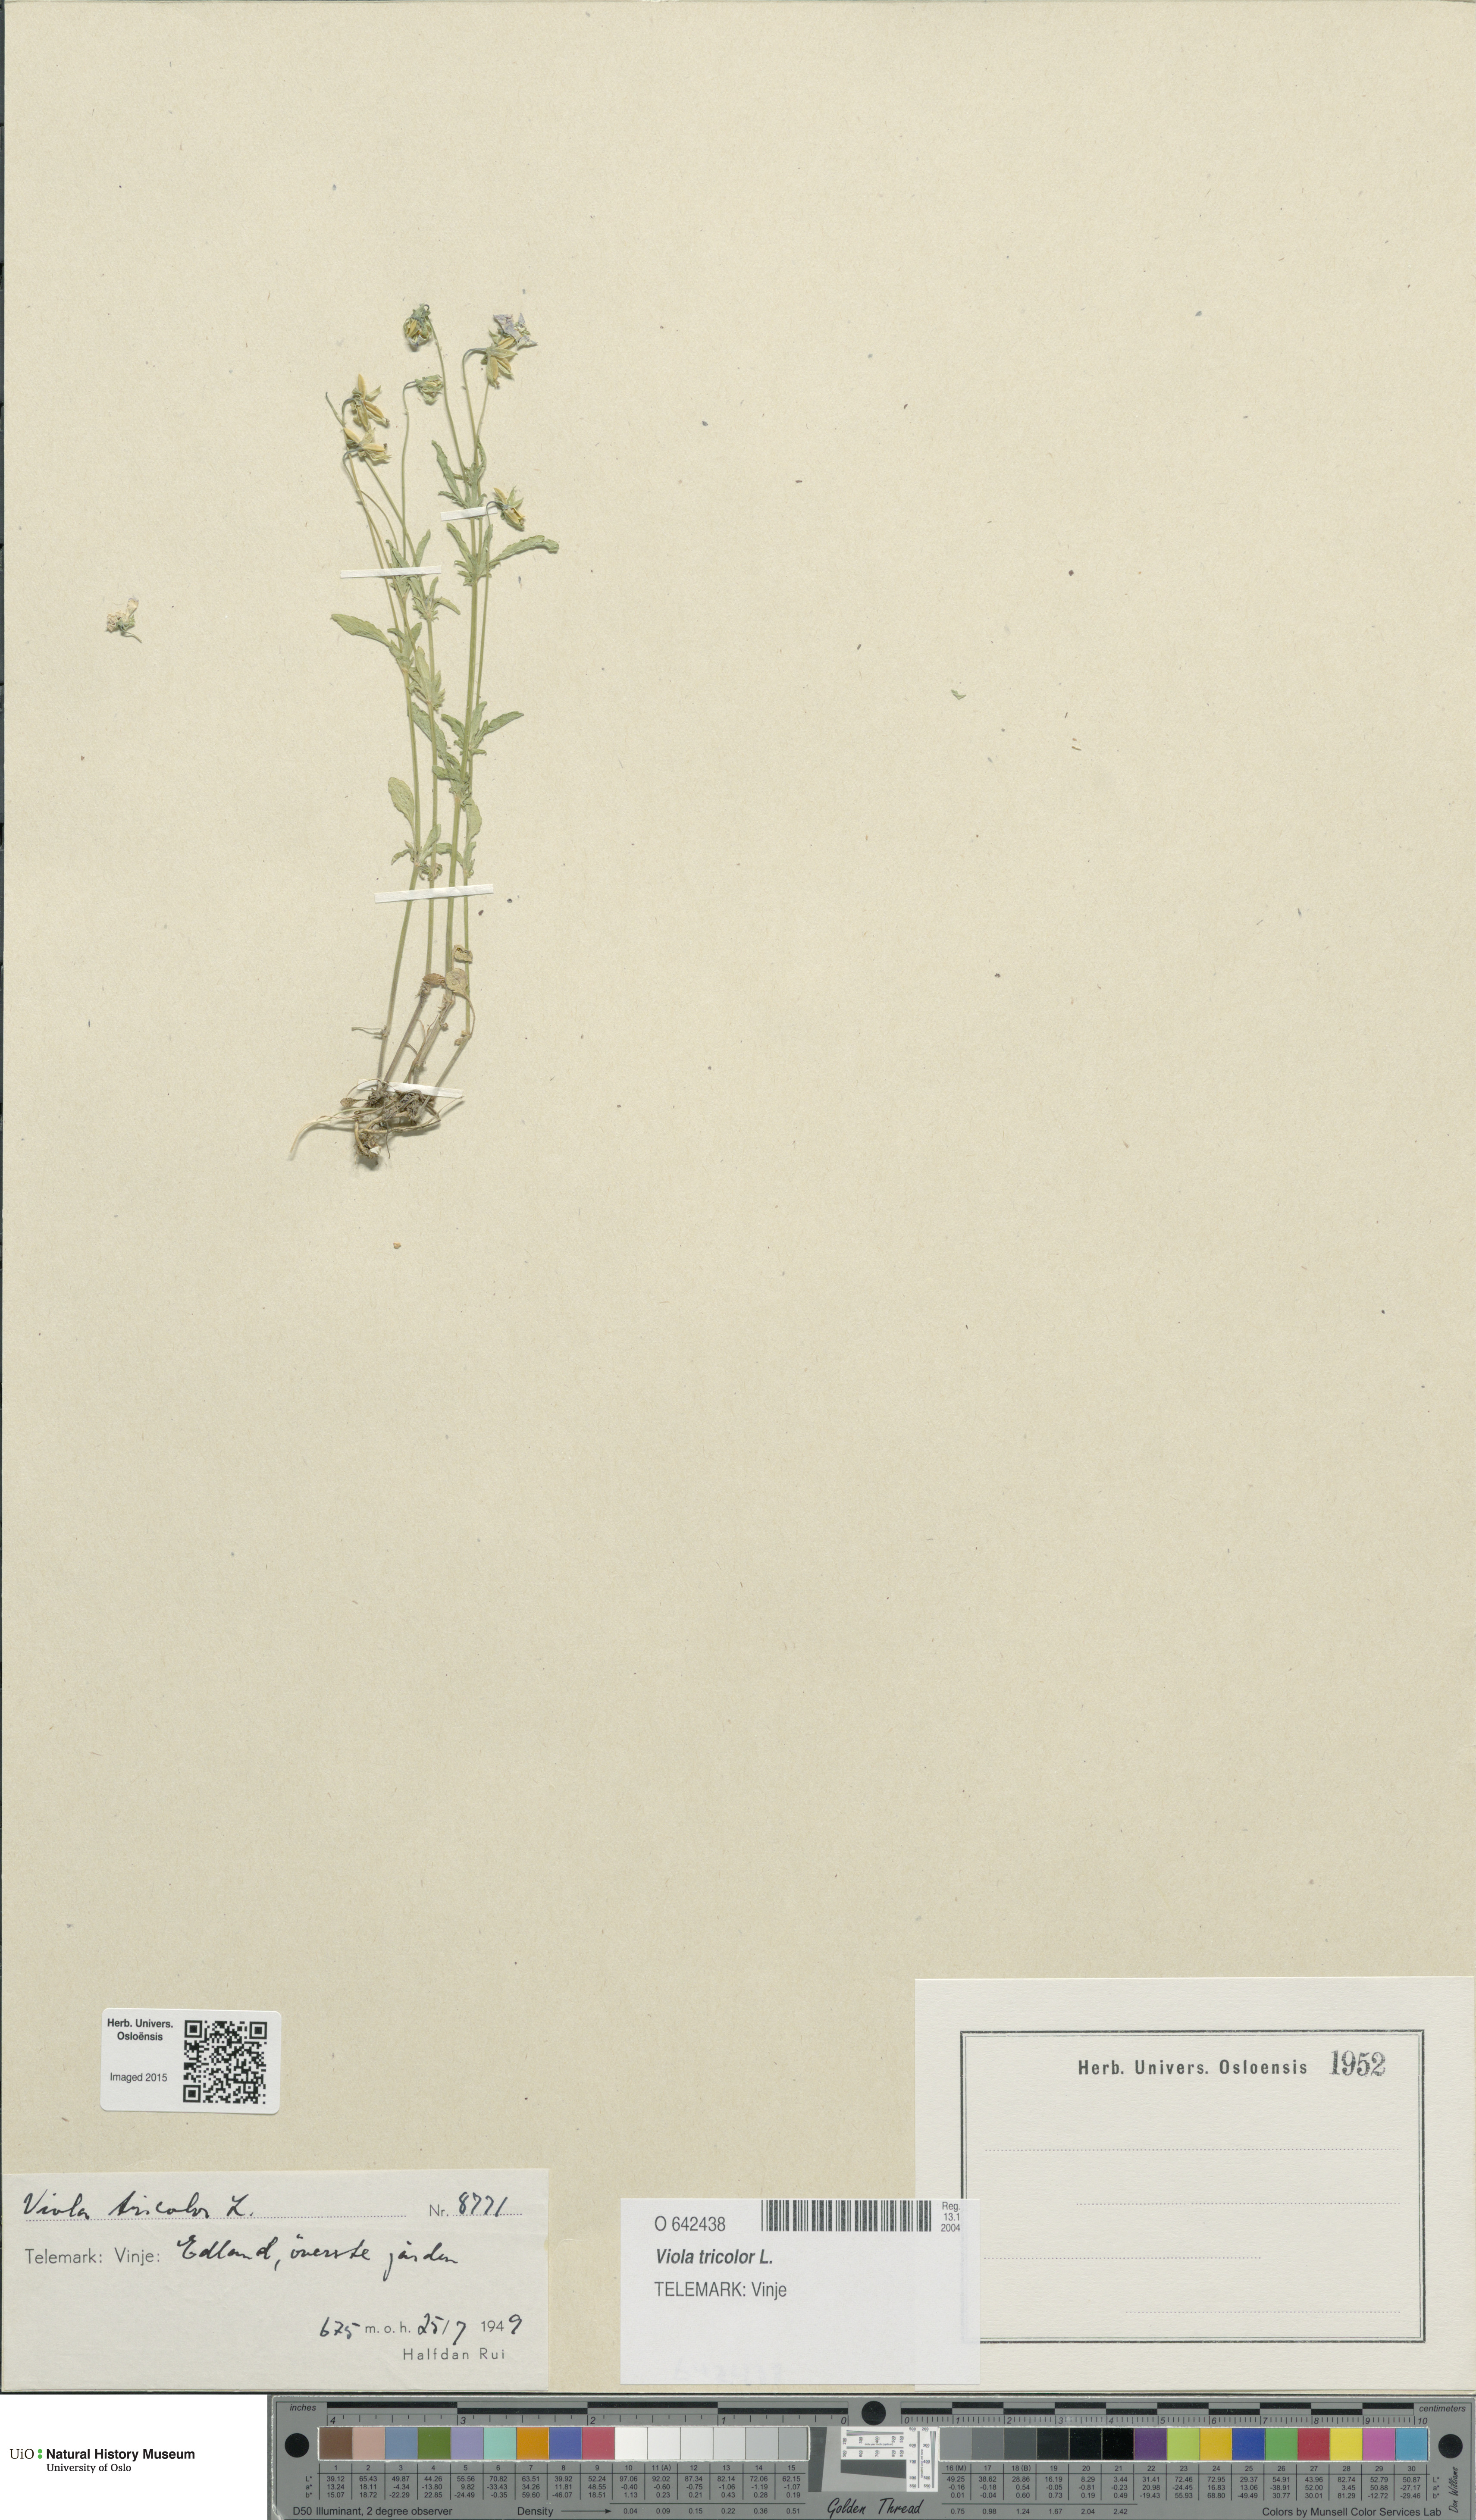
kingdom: Plantae
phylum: Tracheophyta
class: Magnoliopsida
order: Malpighiales
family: Violaceae
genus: Viola
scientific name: Viola tricolor
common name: Pansy
